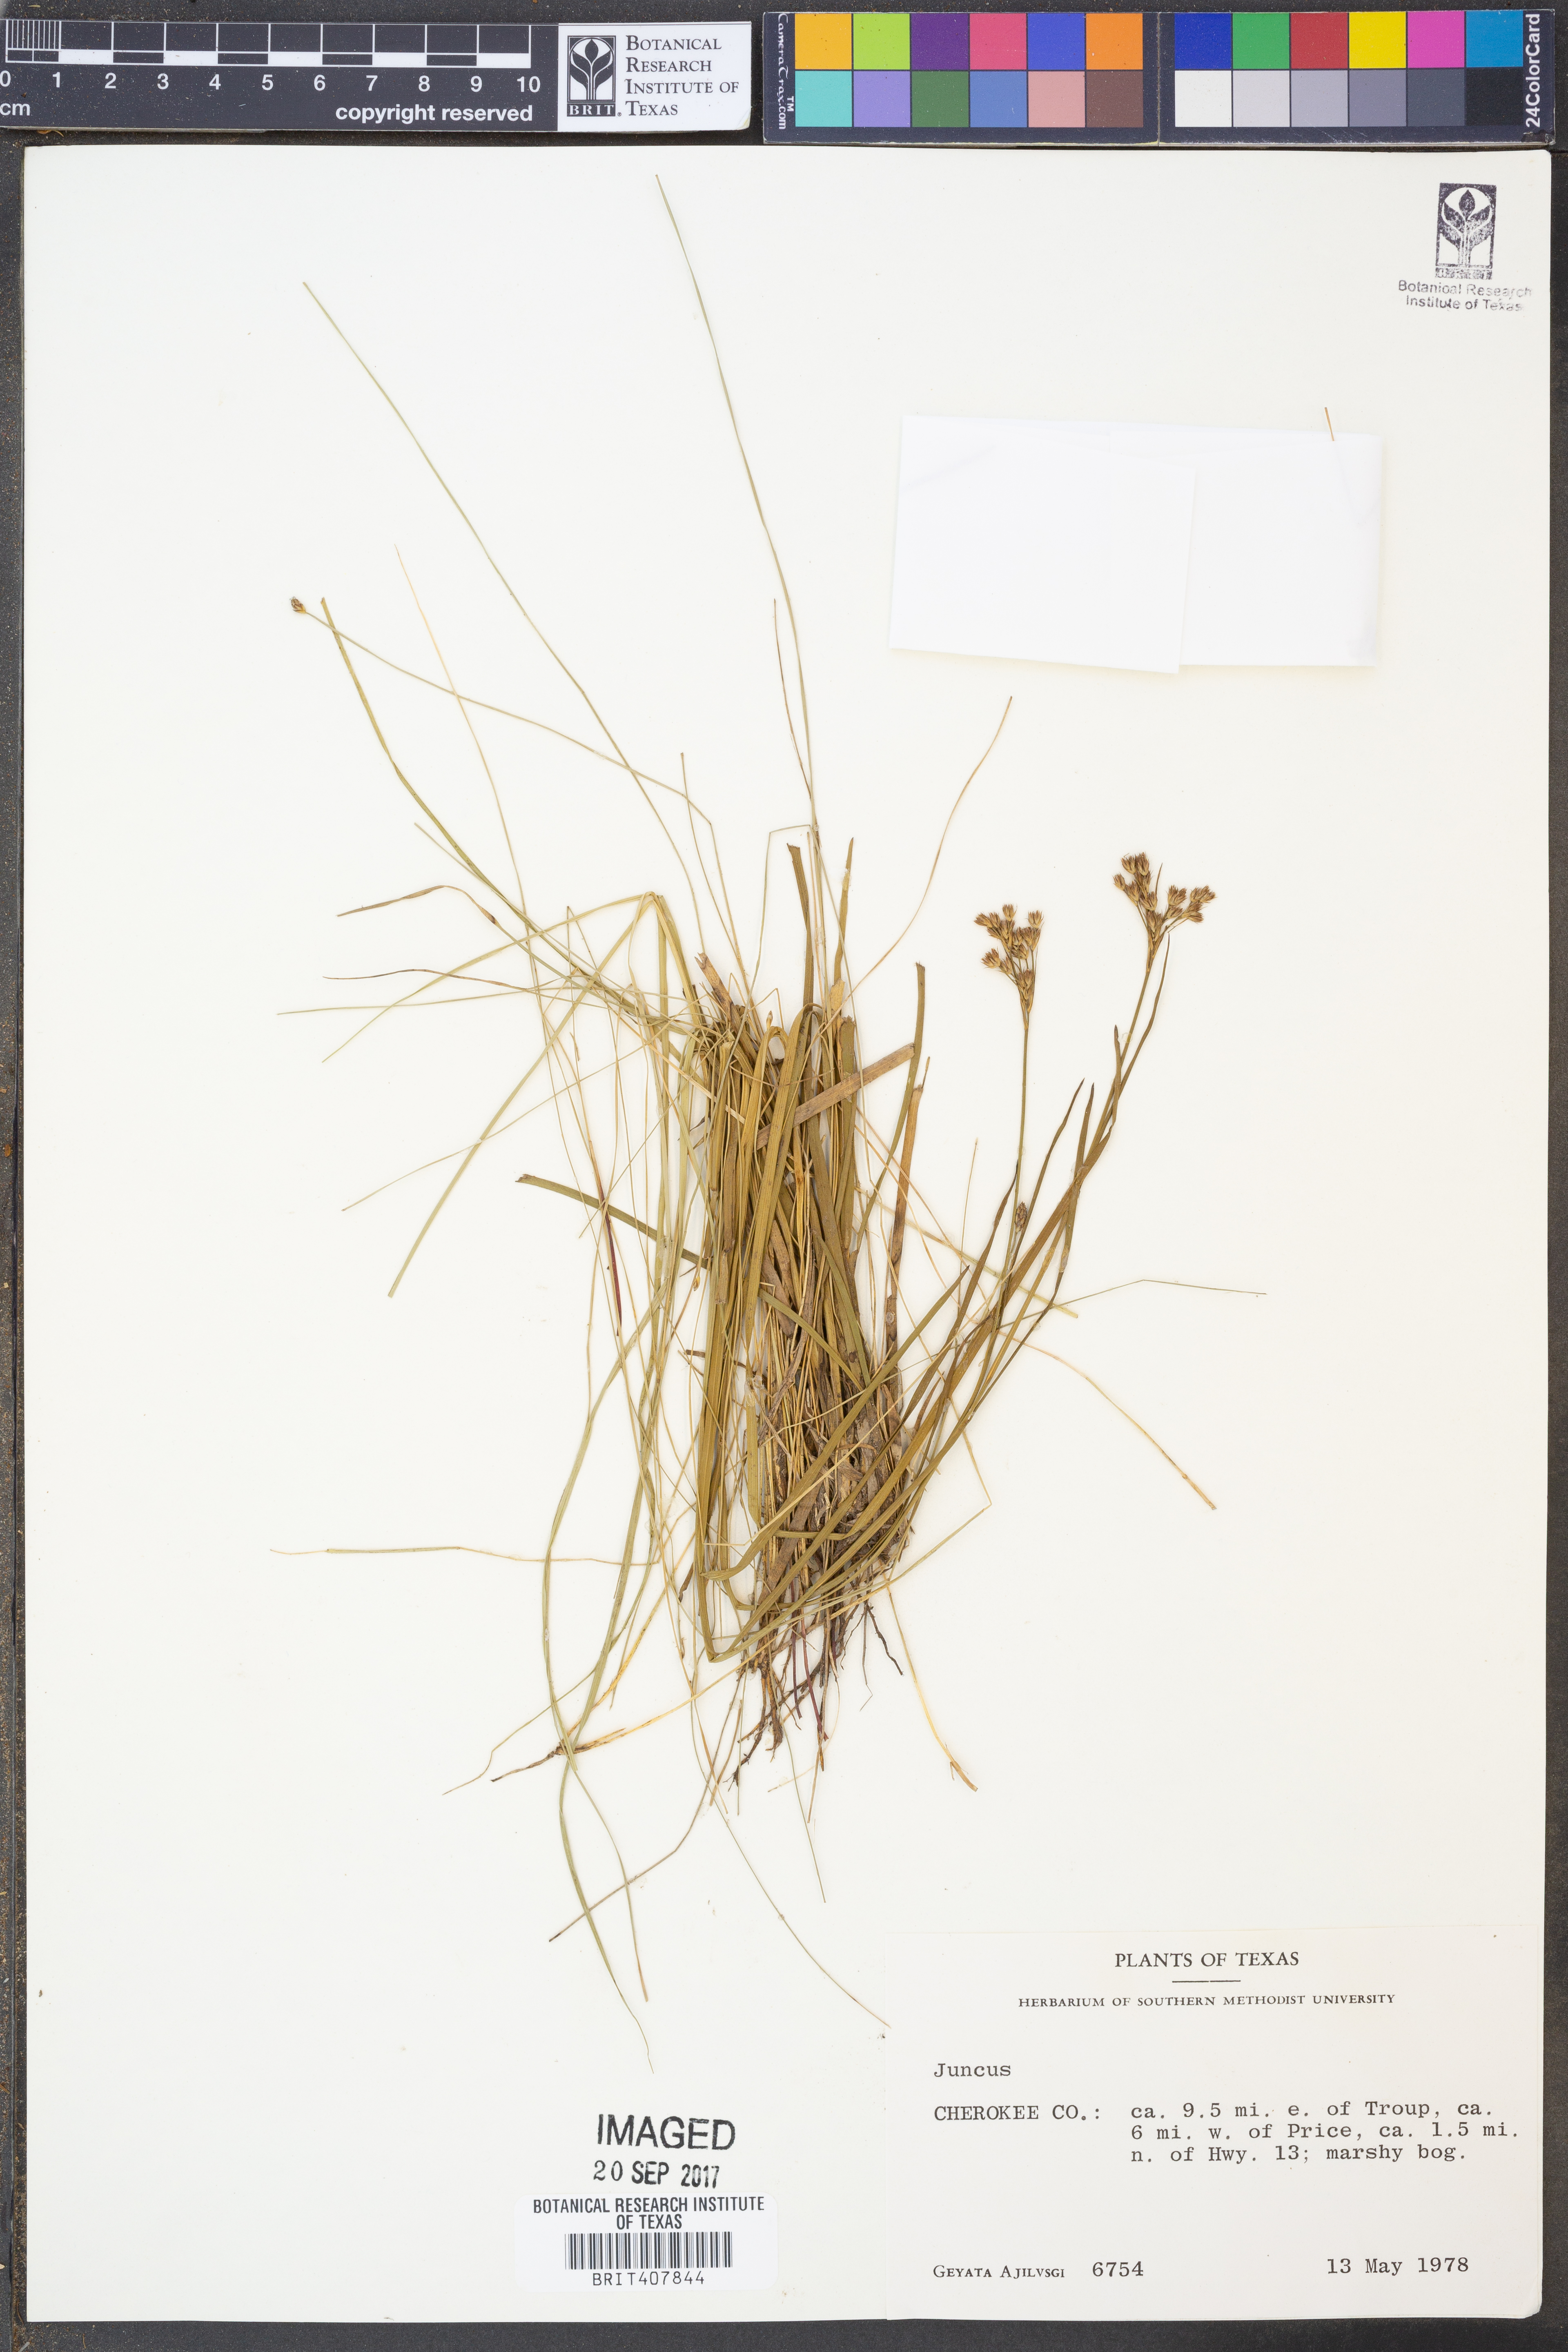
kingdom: Plantae
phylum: Tracheophyta
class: Liliopsida
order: Poales
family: Juncaceae
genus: Juncus
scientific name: Juncus
